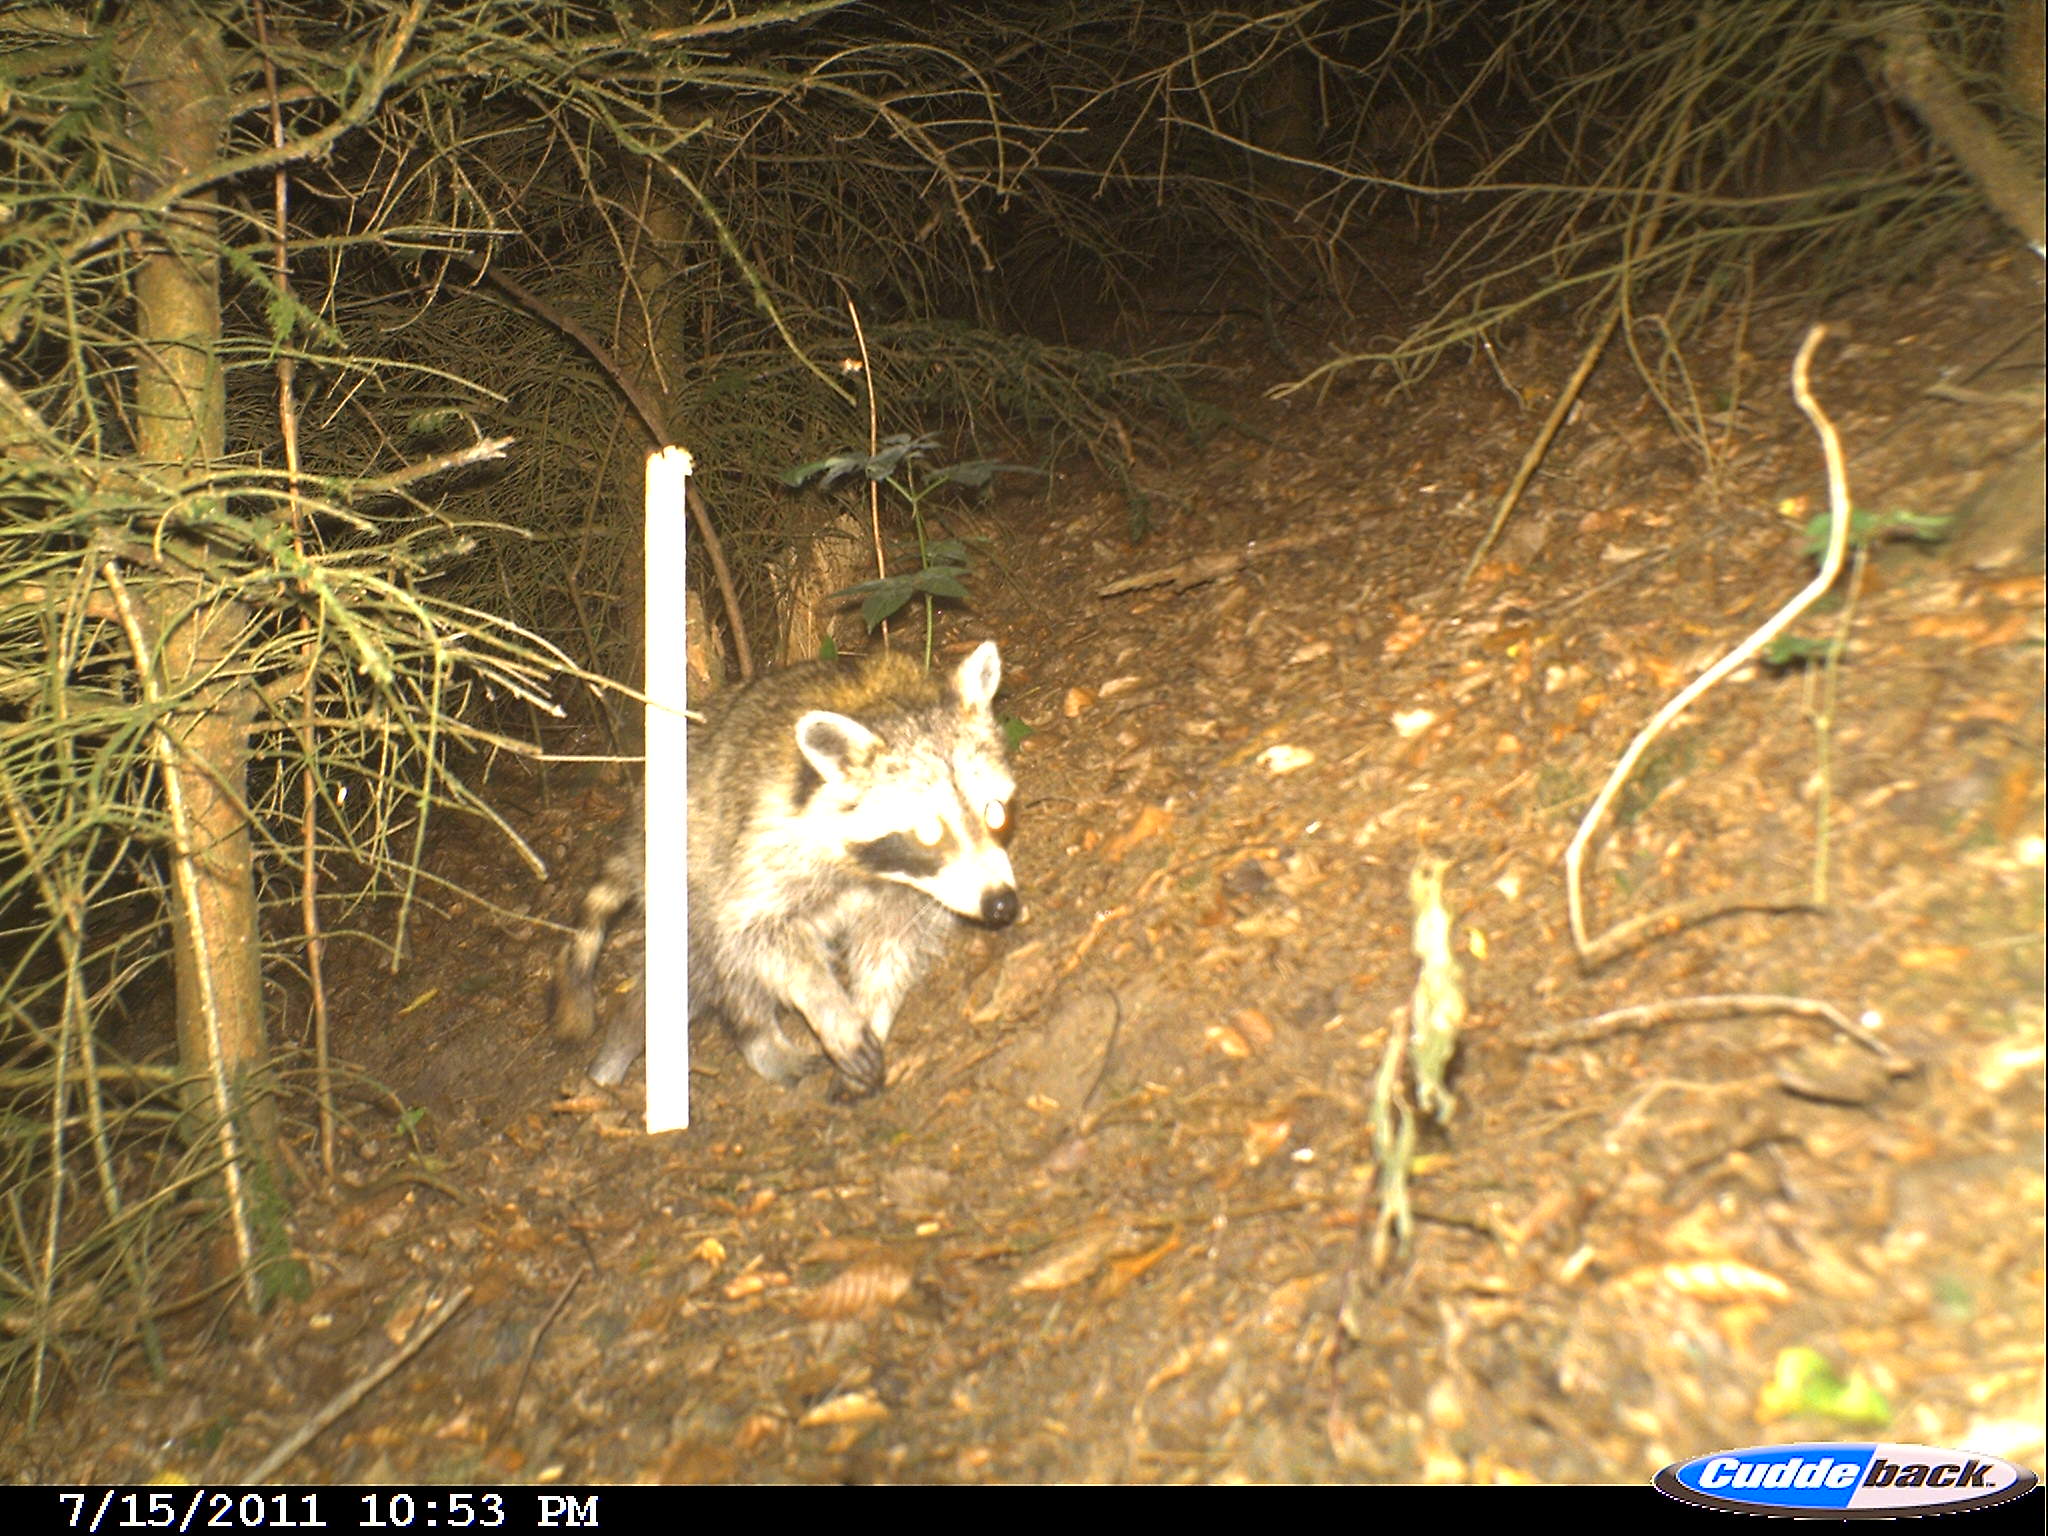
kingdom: Animalia
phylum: Chordata
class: Mammalia
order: Carnivora
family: Procyonidae
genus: Procyon
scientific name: Procyon lotor
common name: Raccoon
